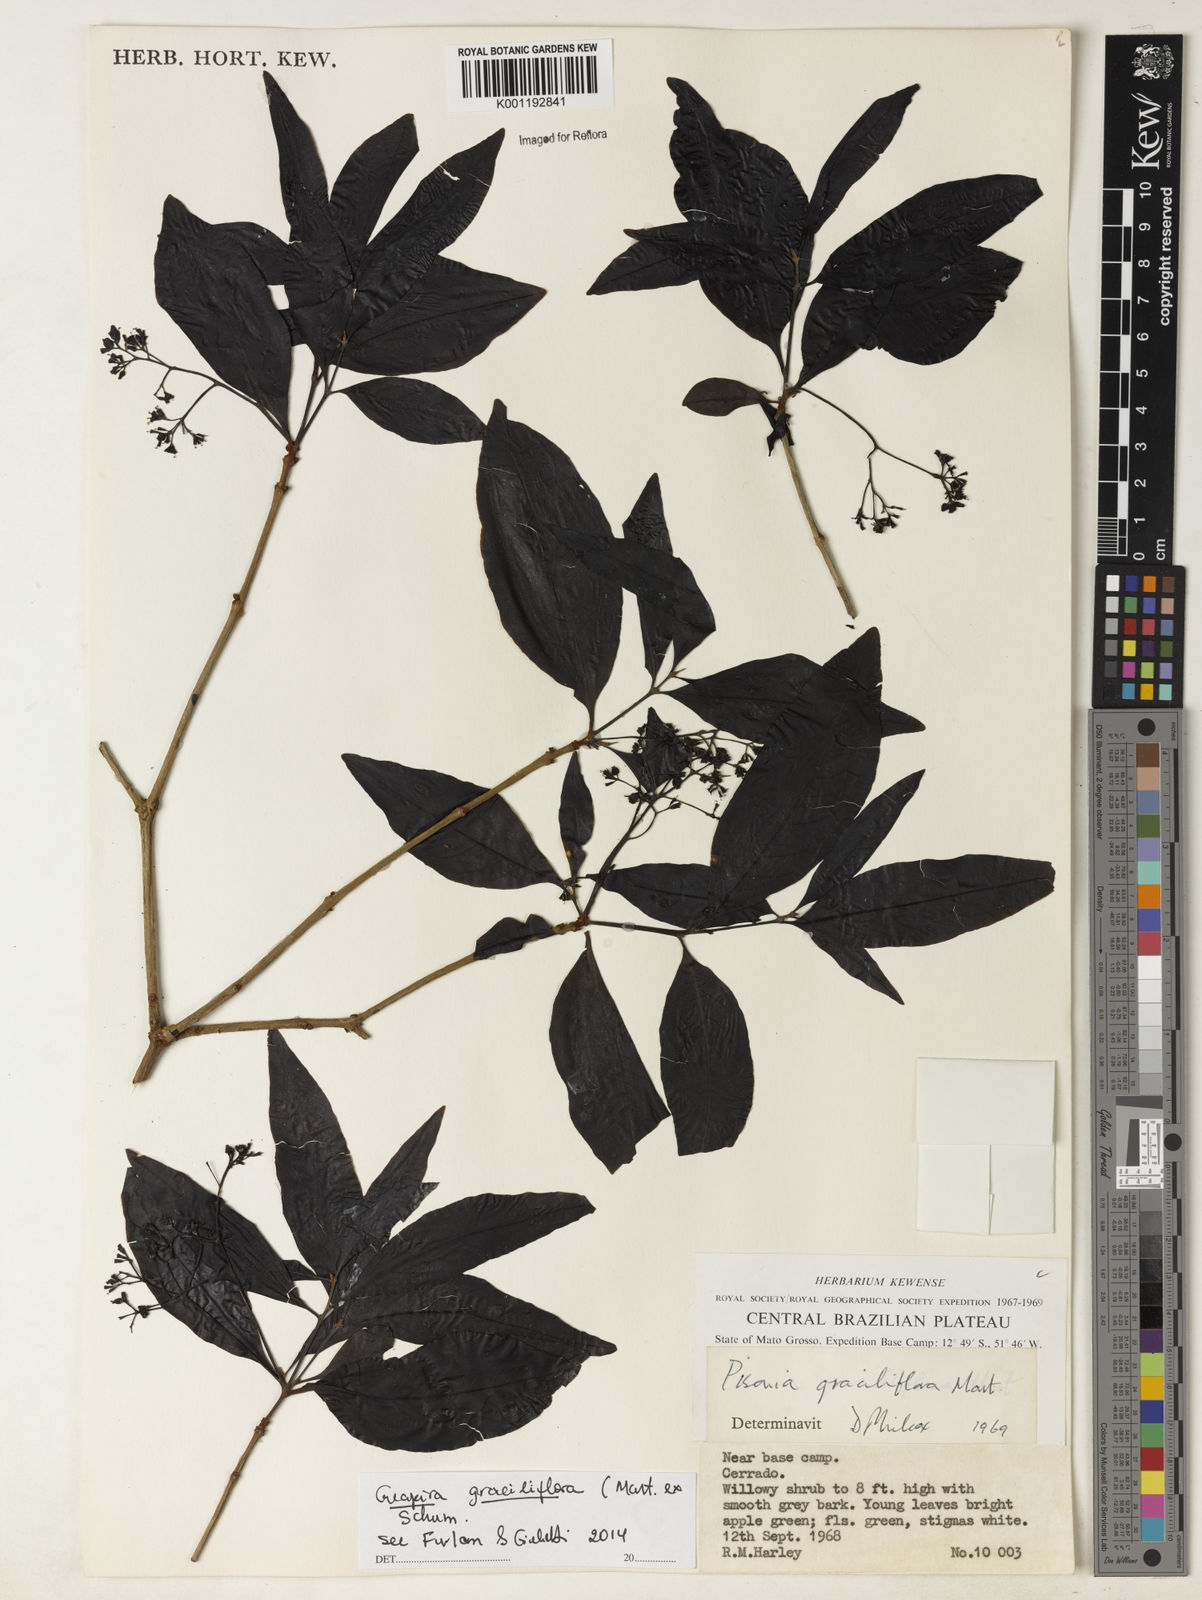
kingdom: Plantae
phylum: Tracheophyta
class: Magnoliopsida
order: Caryophyllales
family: Nyctaginaceae
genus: Guapira
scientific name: Guapira graciliflora
